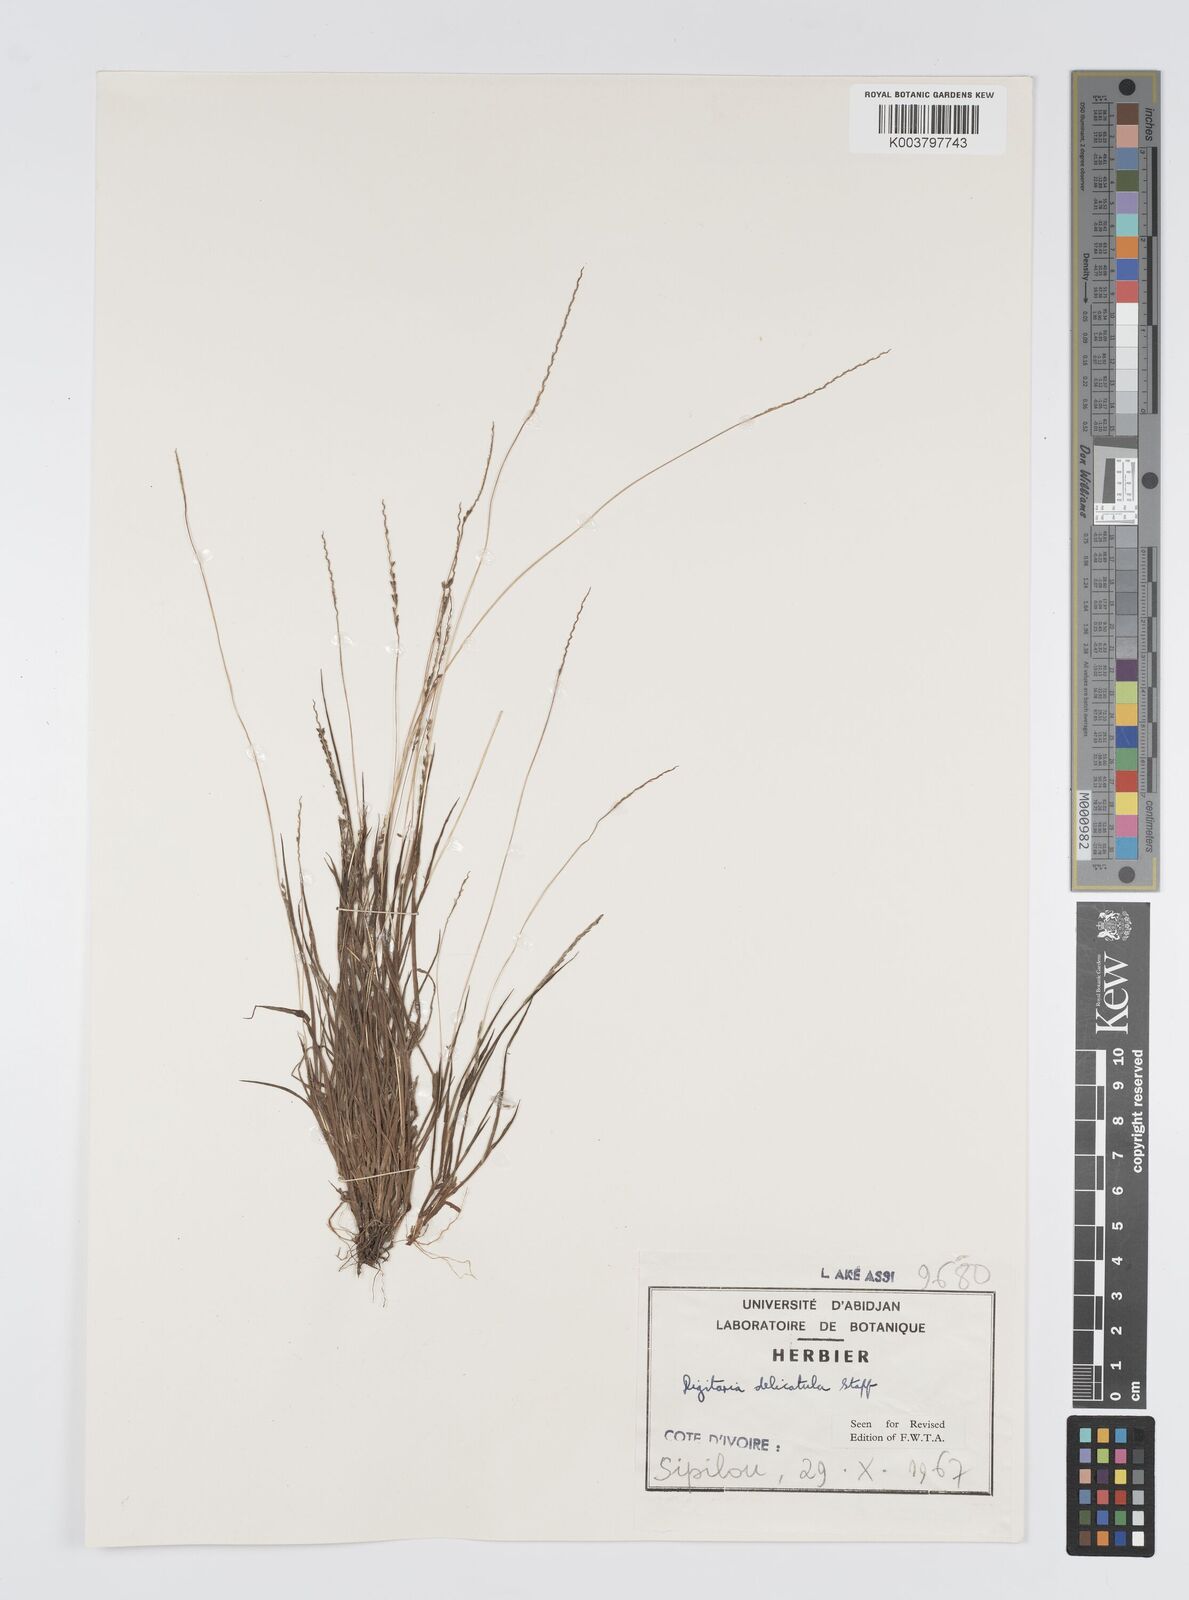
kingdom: Plantae
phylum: Tracheophyta
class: Liliopsida
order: Poales
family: Poaceae
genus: Digitaria
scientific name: Digitaria delicatula
